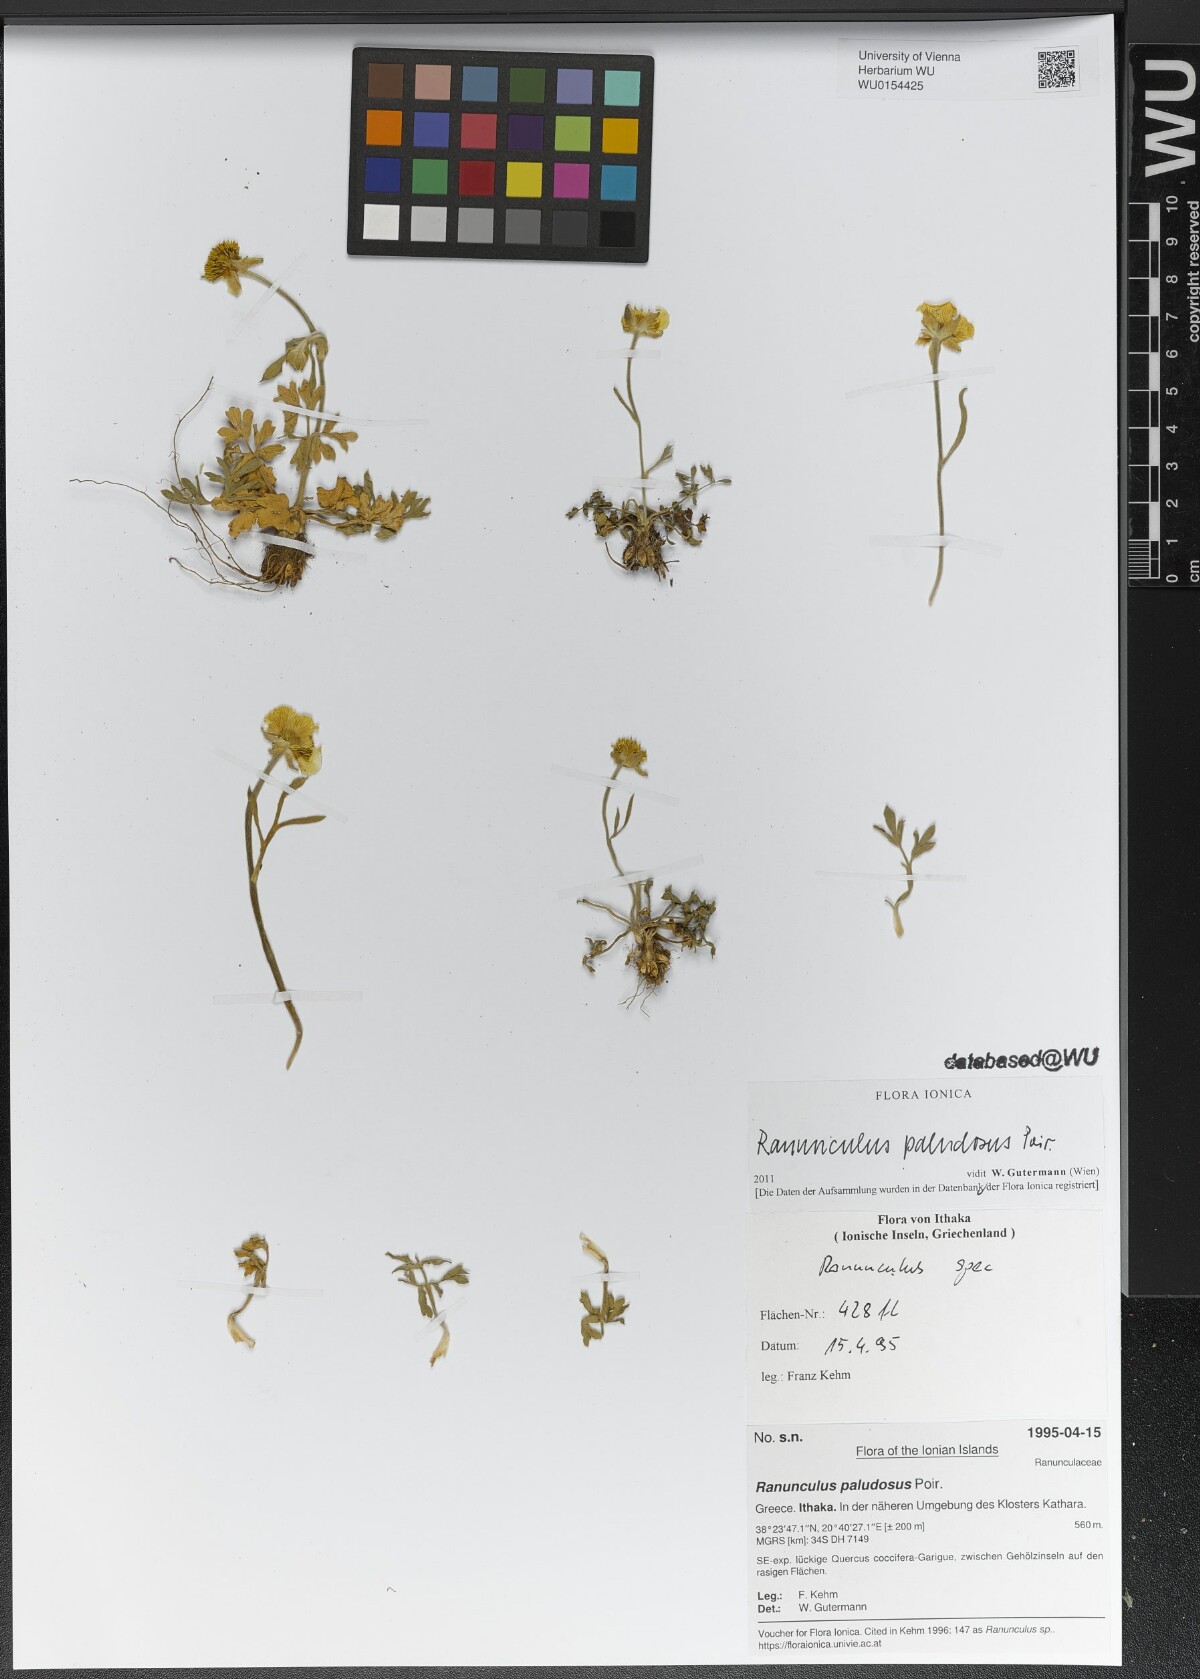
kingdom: Plantae
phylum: Tracheophyta
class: Magnoliopsida
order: Ranunculales
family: Ranunculaceae
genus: Ranunculus
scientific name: Ranunculus paludosus
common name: Jersey buttercup
